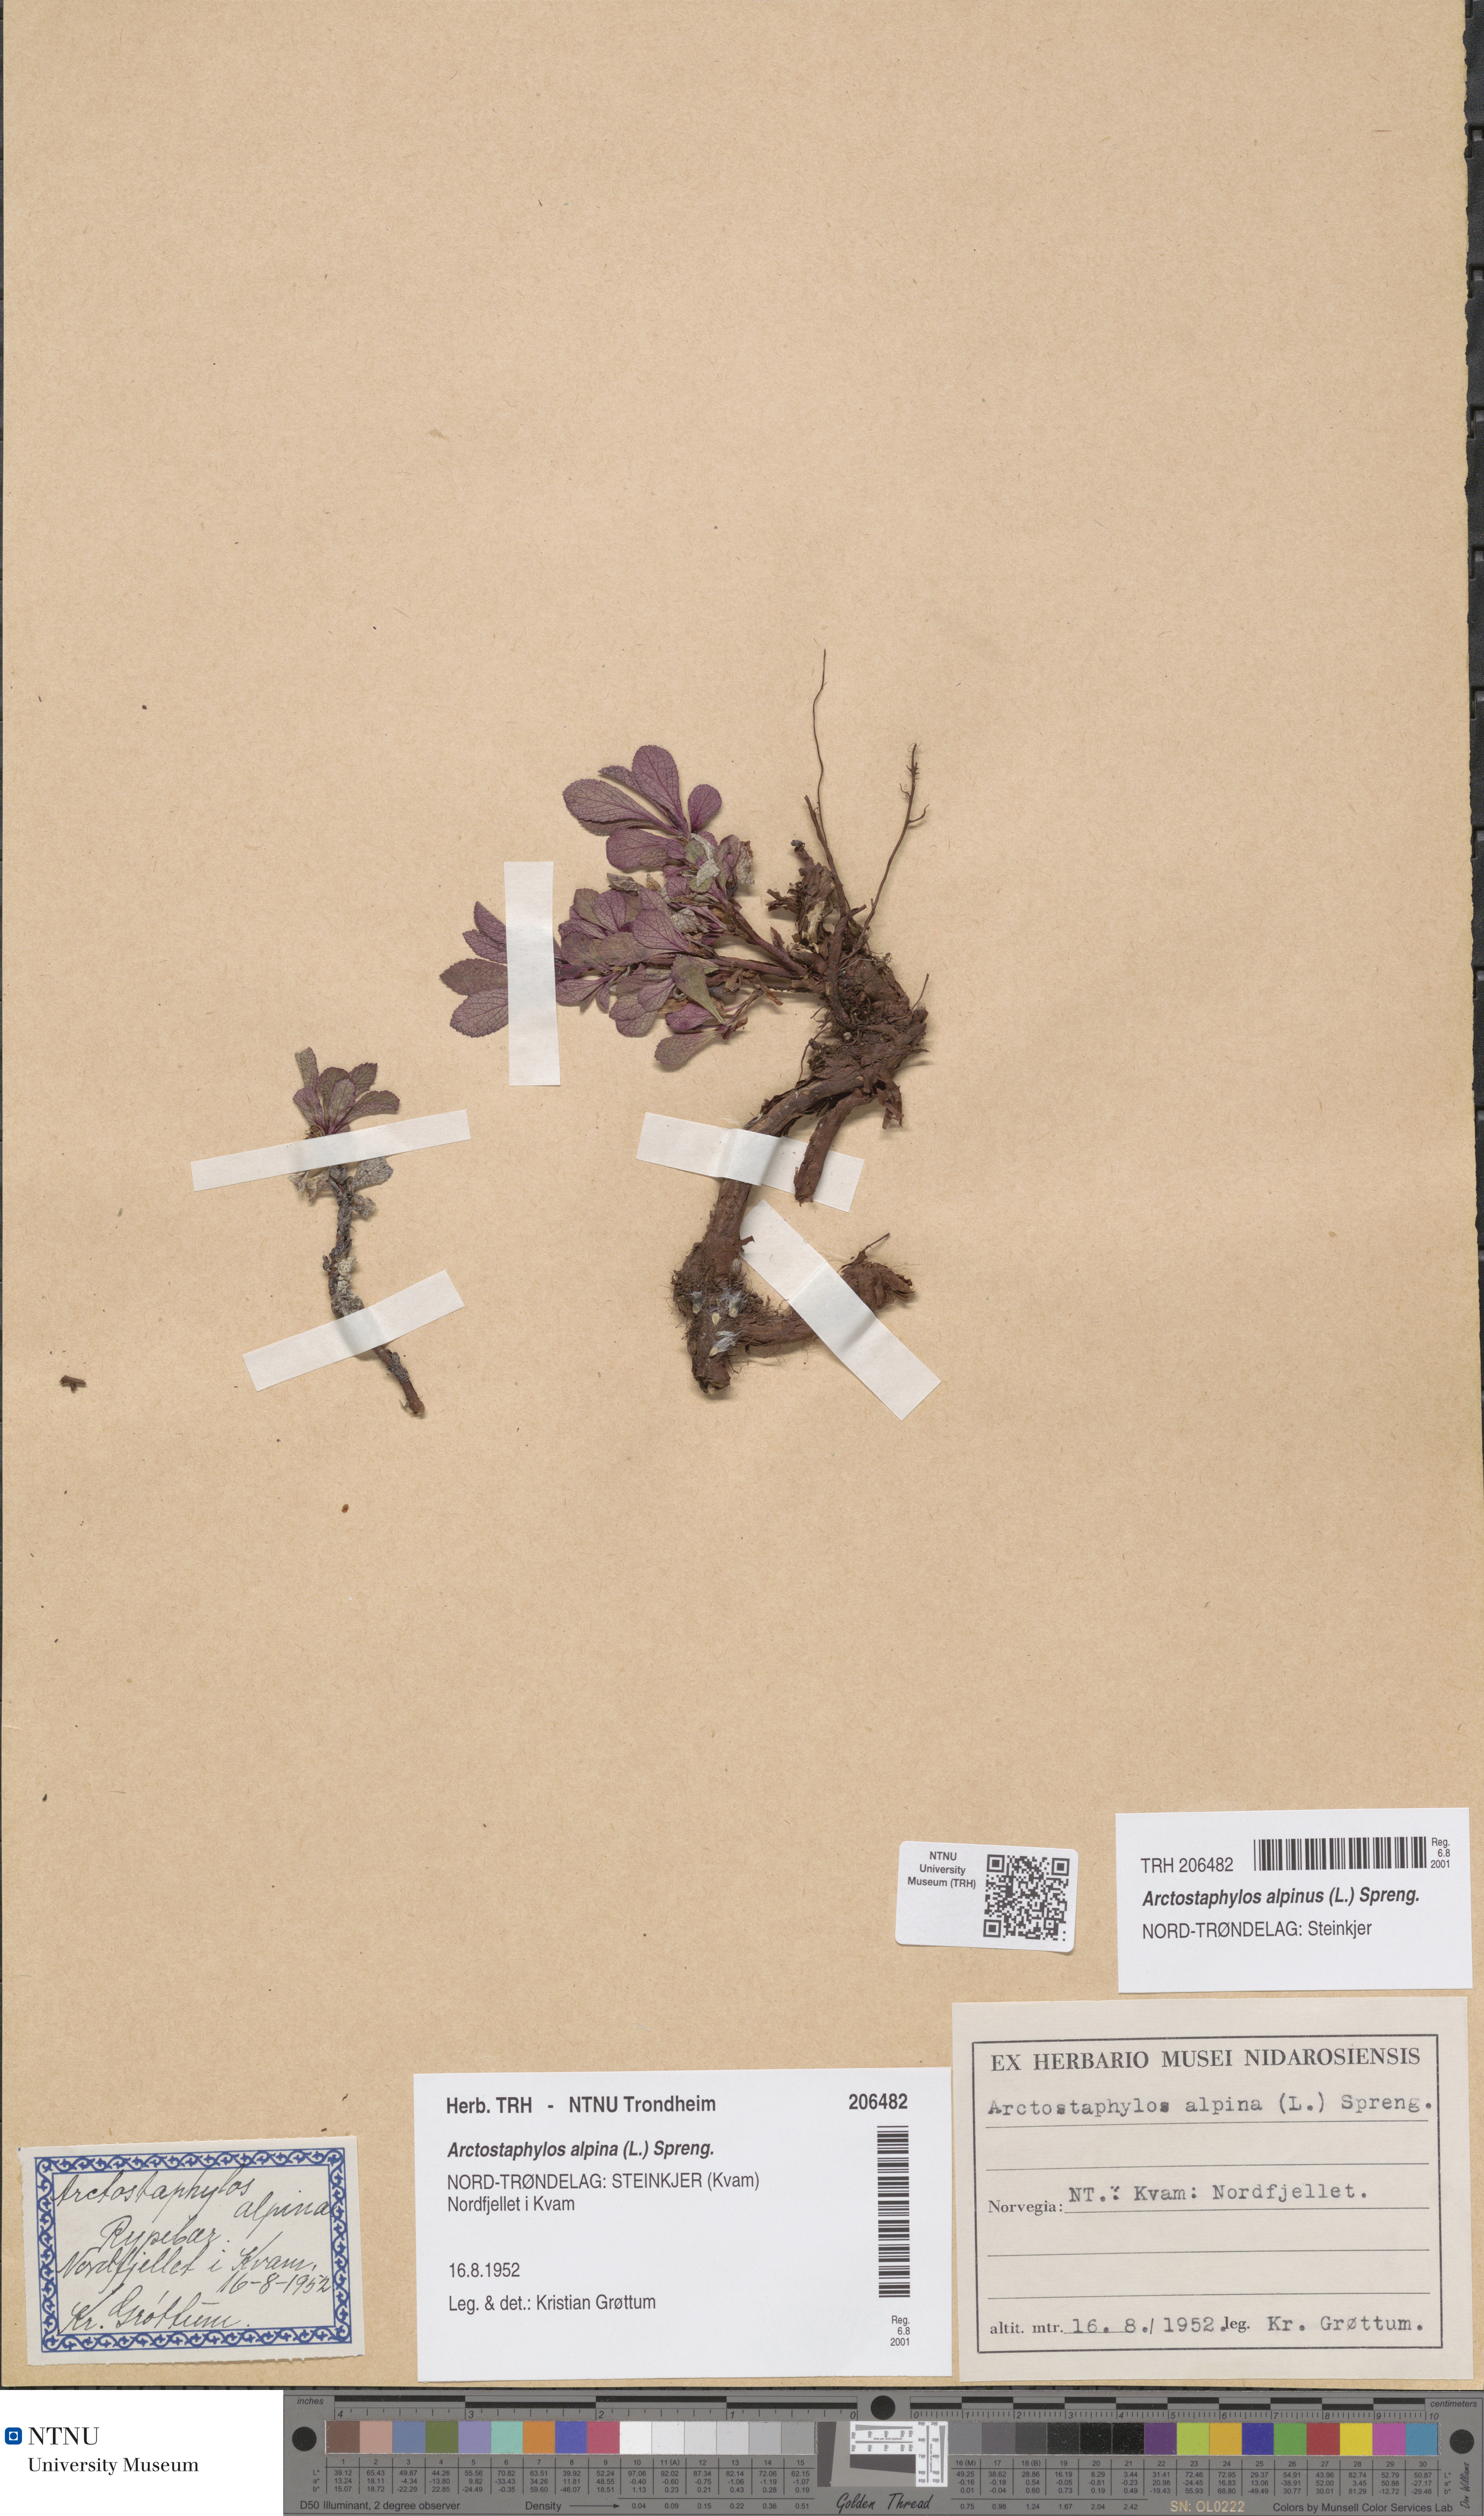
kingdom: Plantae
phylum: Tracheophyta
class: Magnoliopsida
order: Ericales
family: Ericaceae
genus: Arctostaphylos
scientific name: Arctostaphylos alpinus
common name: Alpine bearberry
